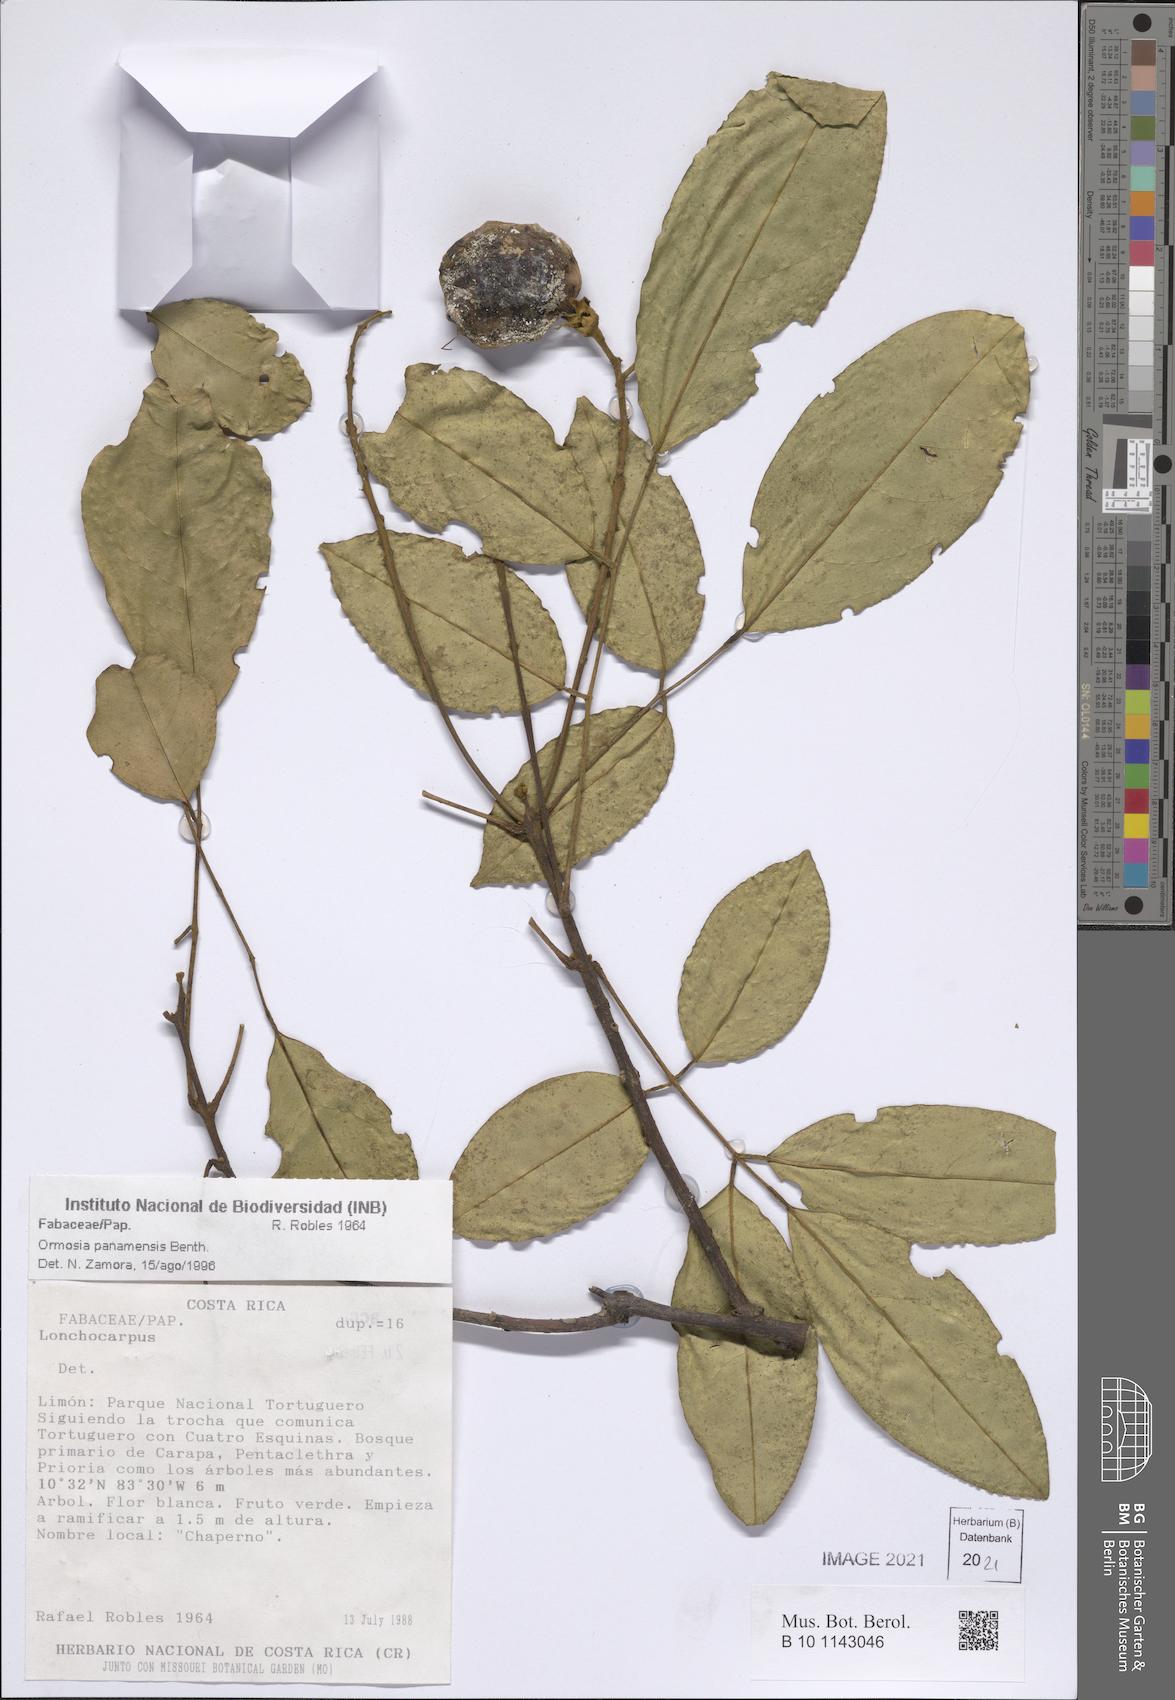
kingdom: Plantae
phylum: Tracheophyta
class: Magnoliopsida
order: Fabales
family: Fabaceae
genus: Ormosia
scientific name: Ormosia panamensis
